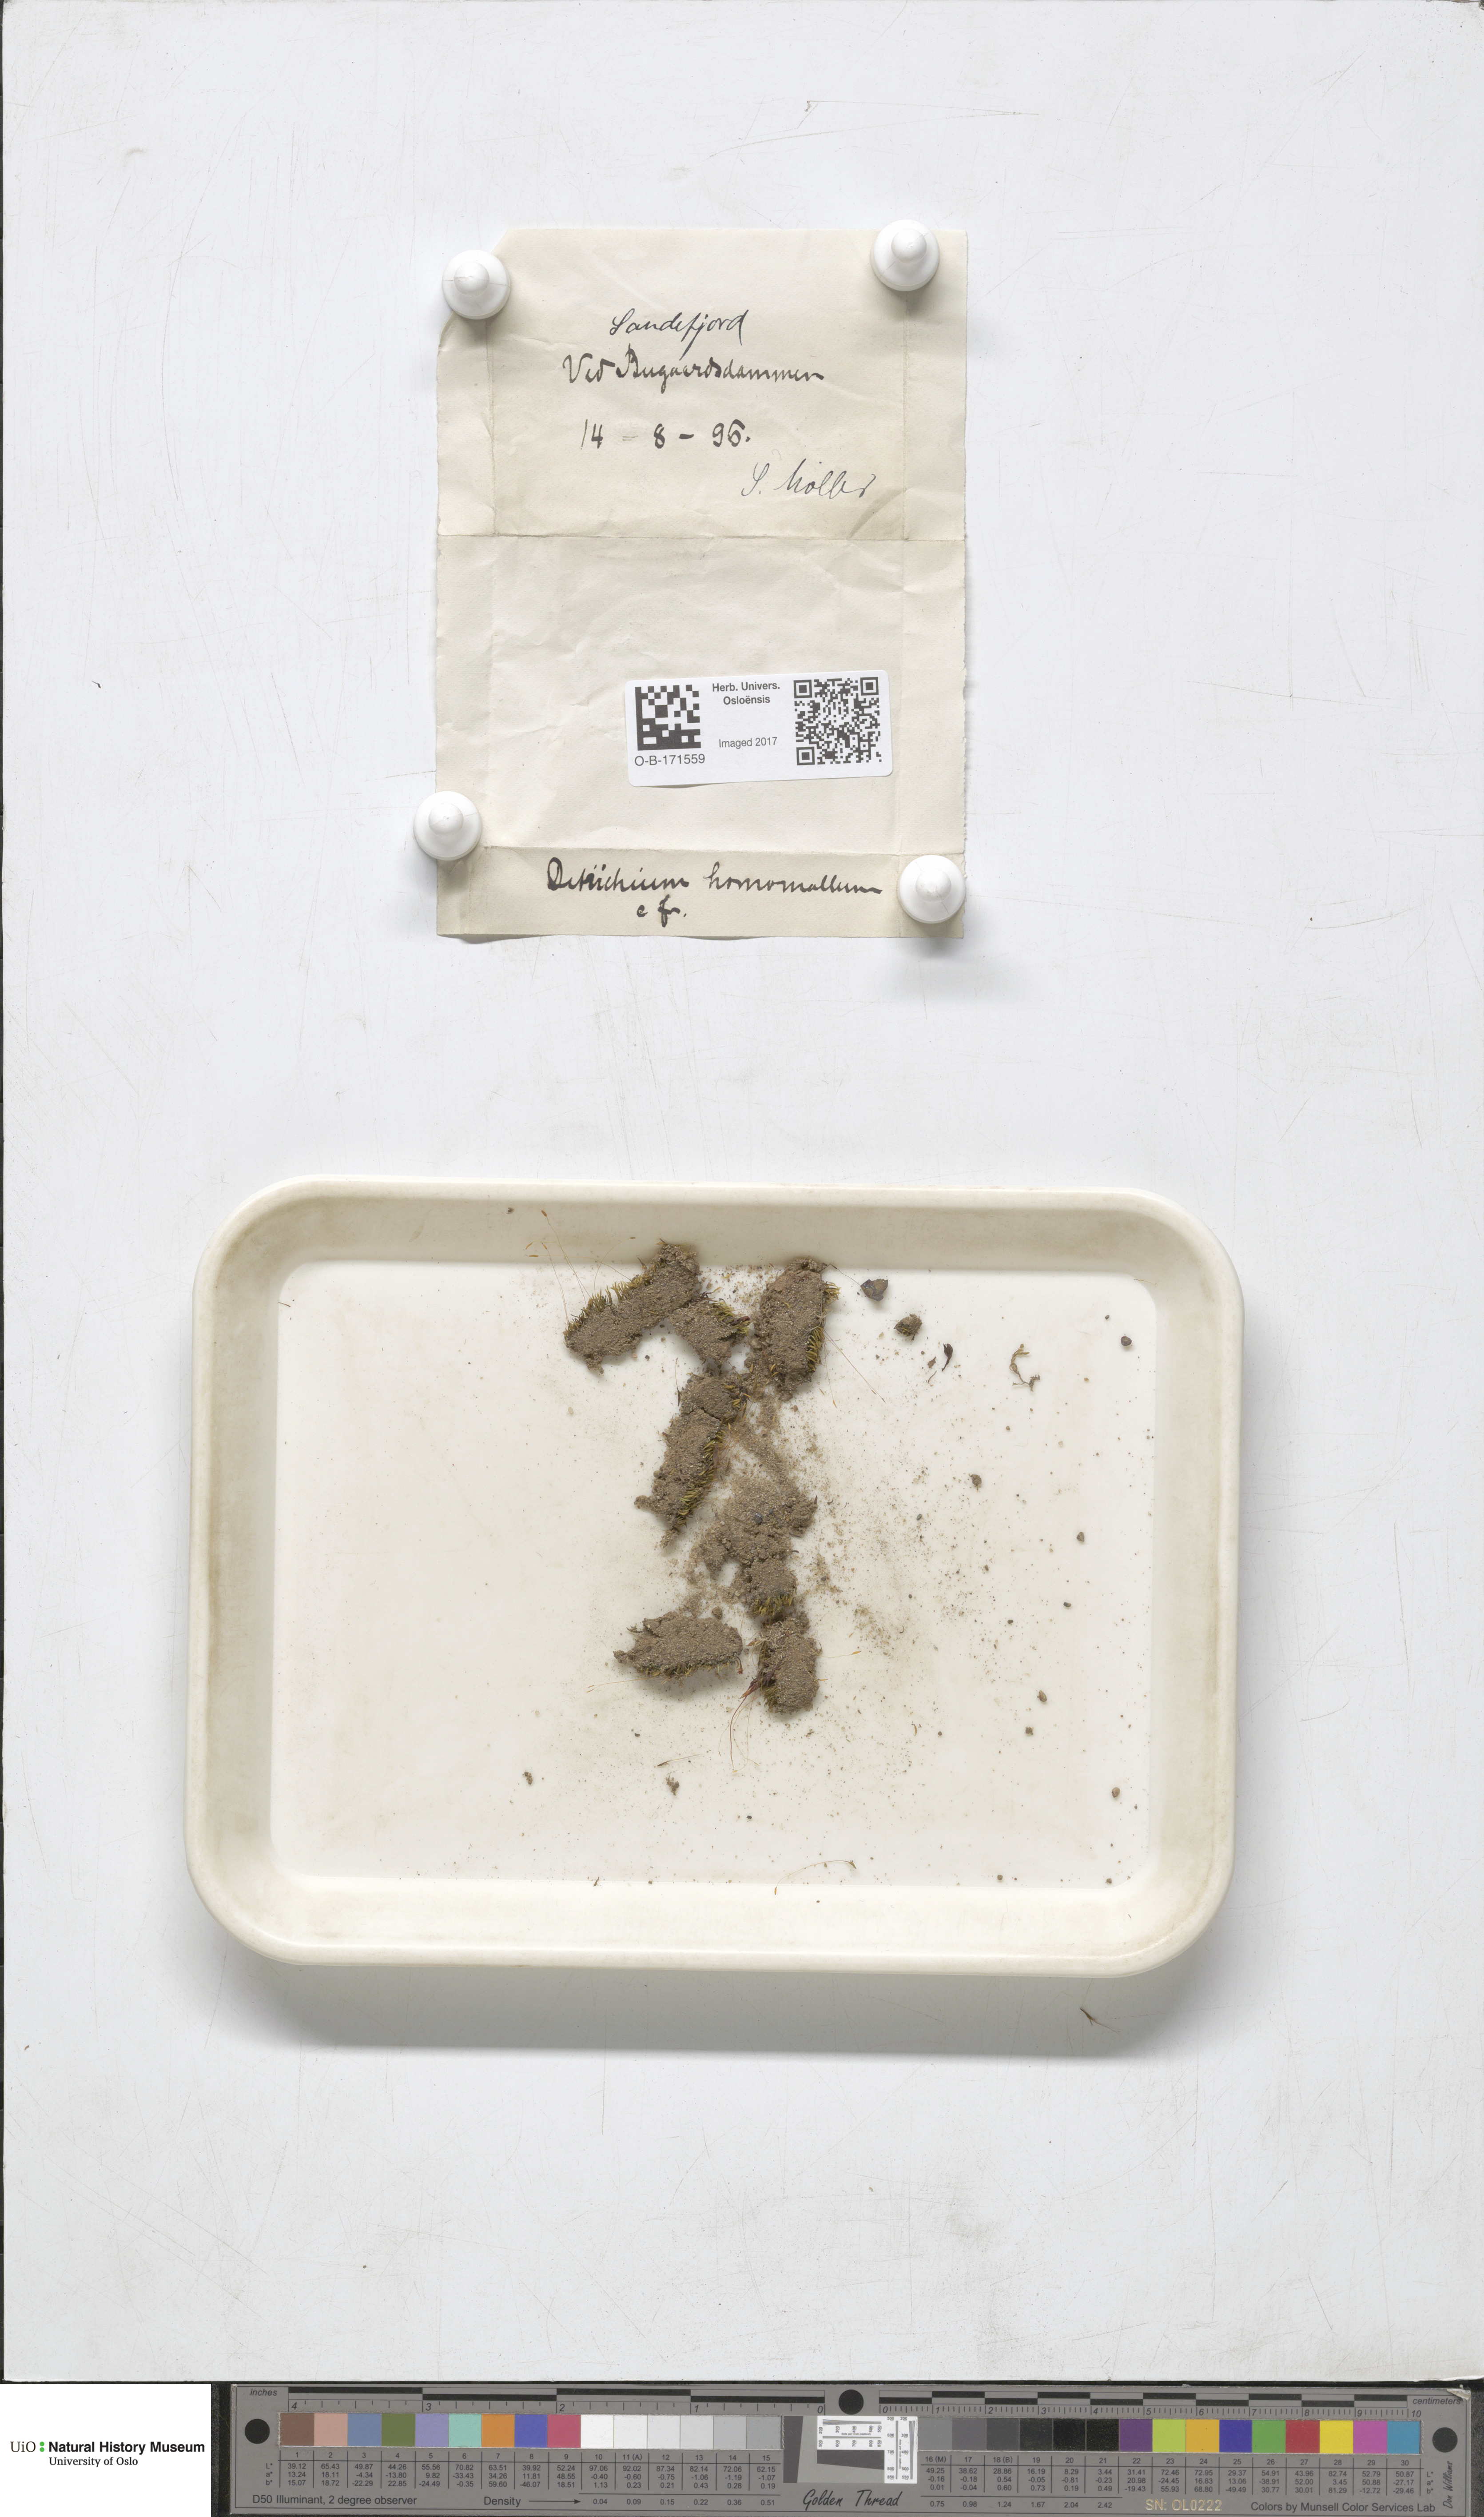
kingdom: Plantae
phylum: Bryophyta
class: Bryopsida
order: Dicranales
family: Ditrichaceae
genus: Ditrichum
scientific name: Ditrichum heteromallum
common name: Curve-leaved ditrichum
